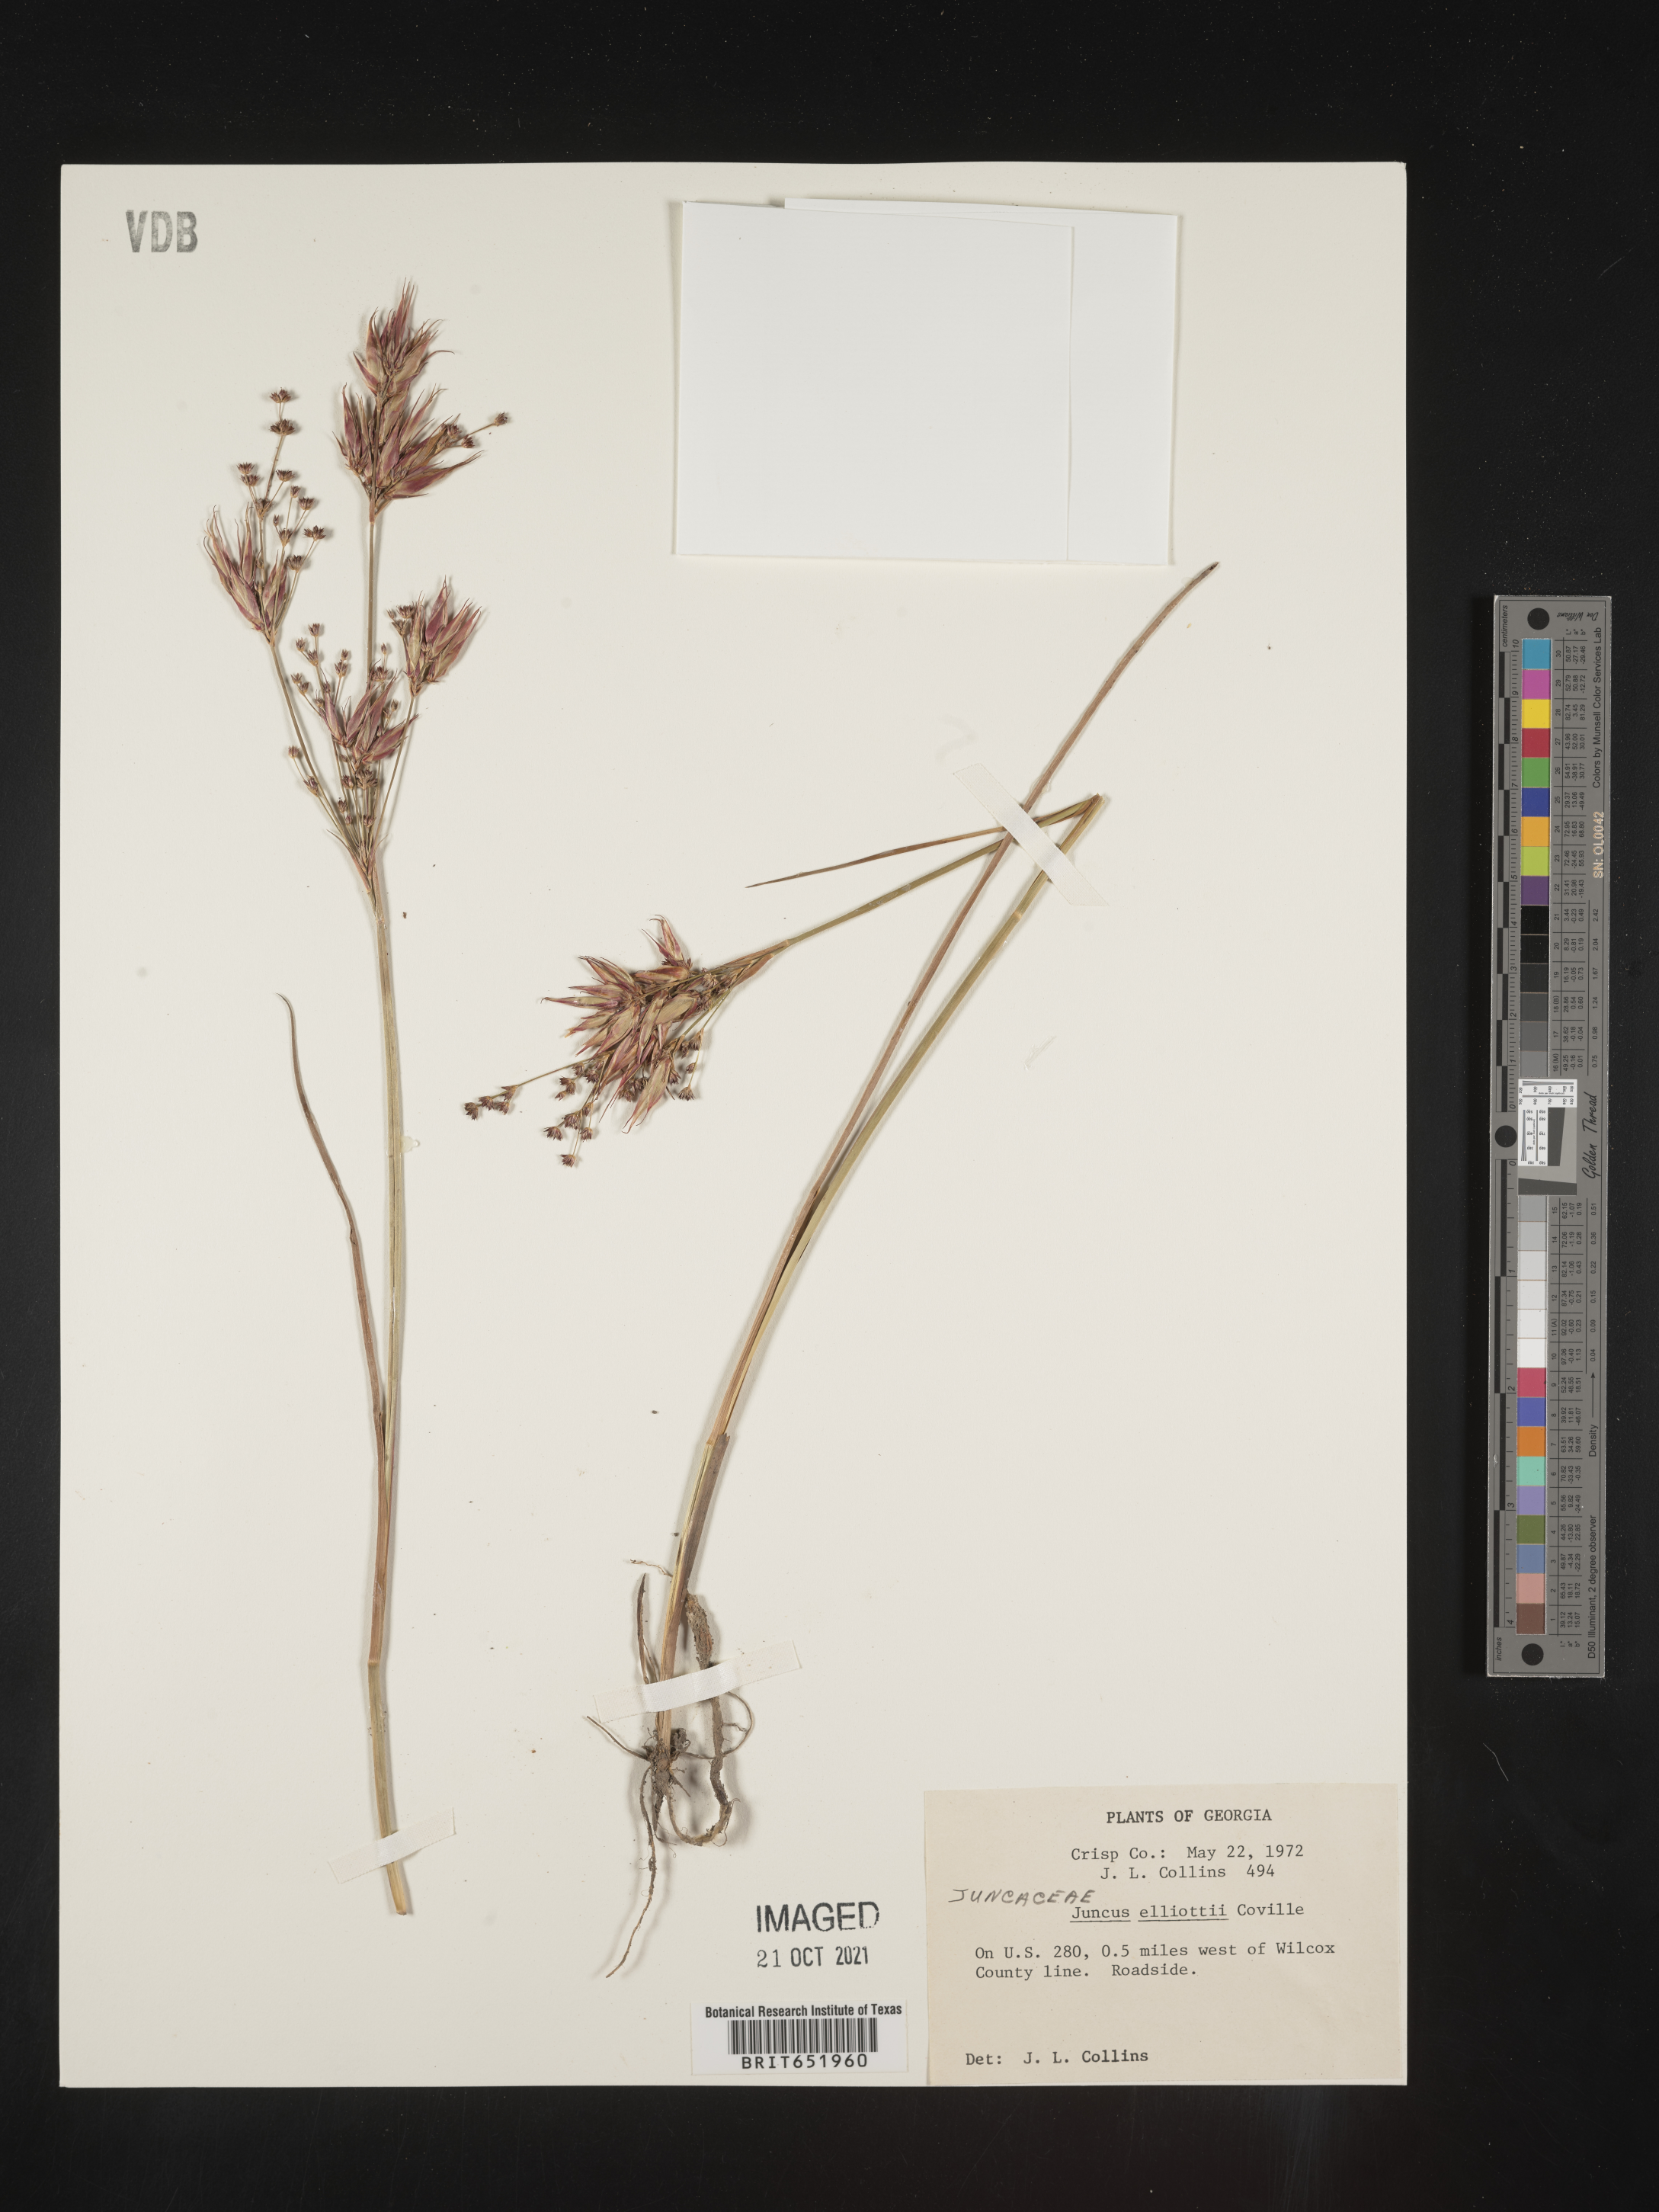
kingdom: Plantae
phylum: Tracheophyta
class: Liliopsida
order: Poales
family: Juncaceae
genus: Juncus
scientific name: Juncus elliottii
